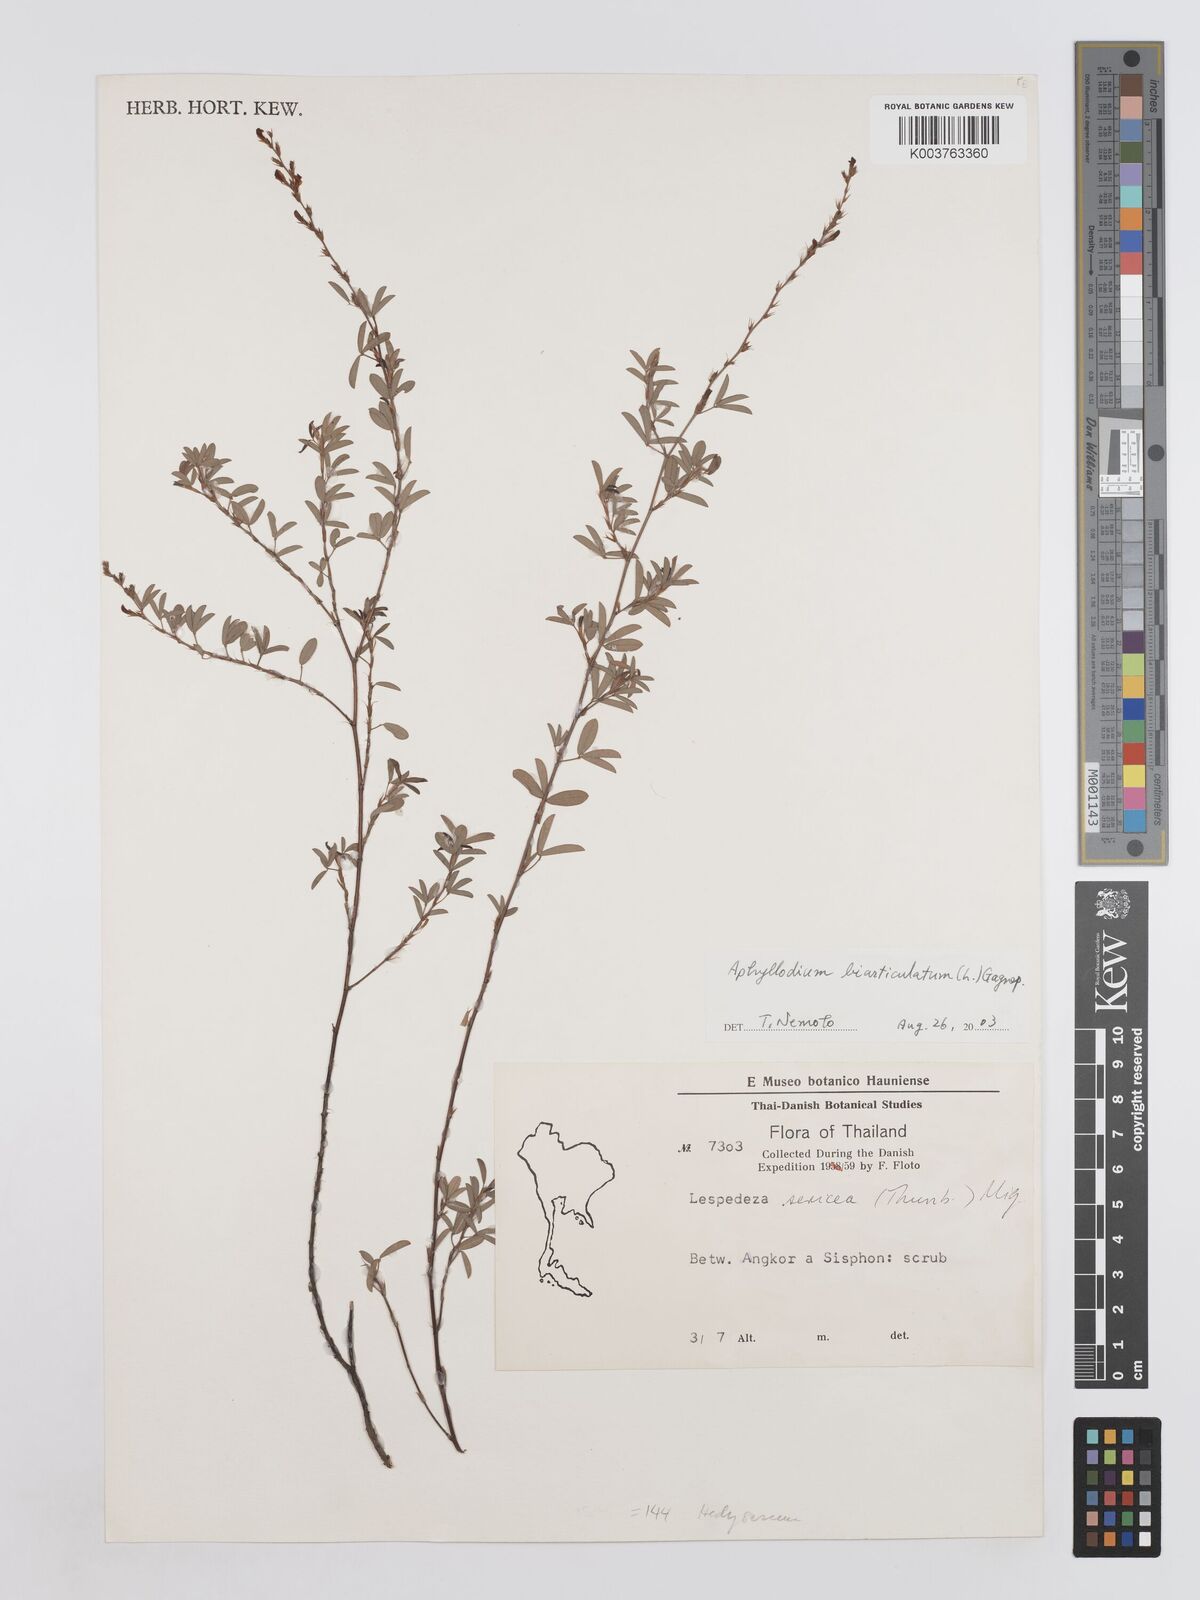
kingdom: Plantae
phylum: Tracheophyta
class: Magnoliopsida
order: Fabales
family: Fabaceae
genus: Aphyllodium
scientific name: Aphyllodium biarticulatum
